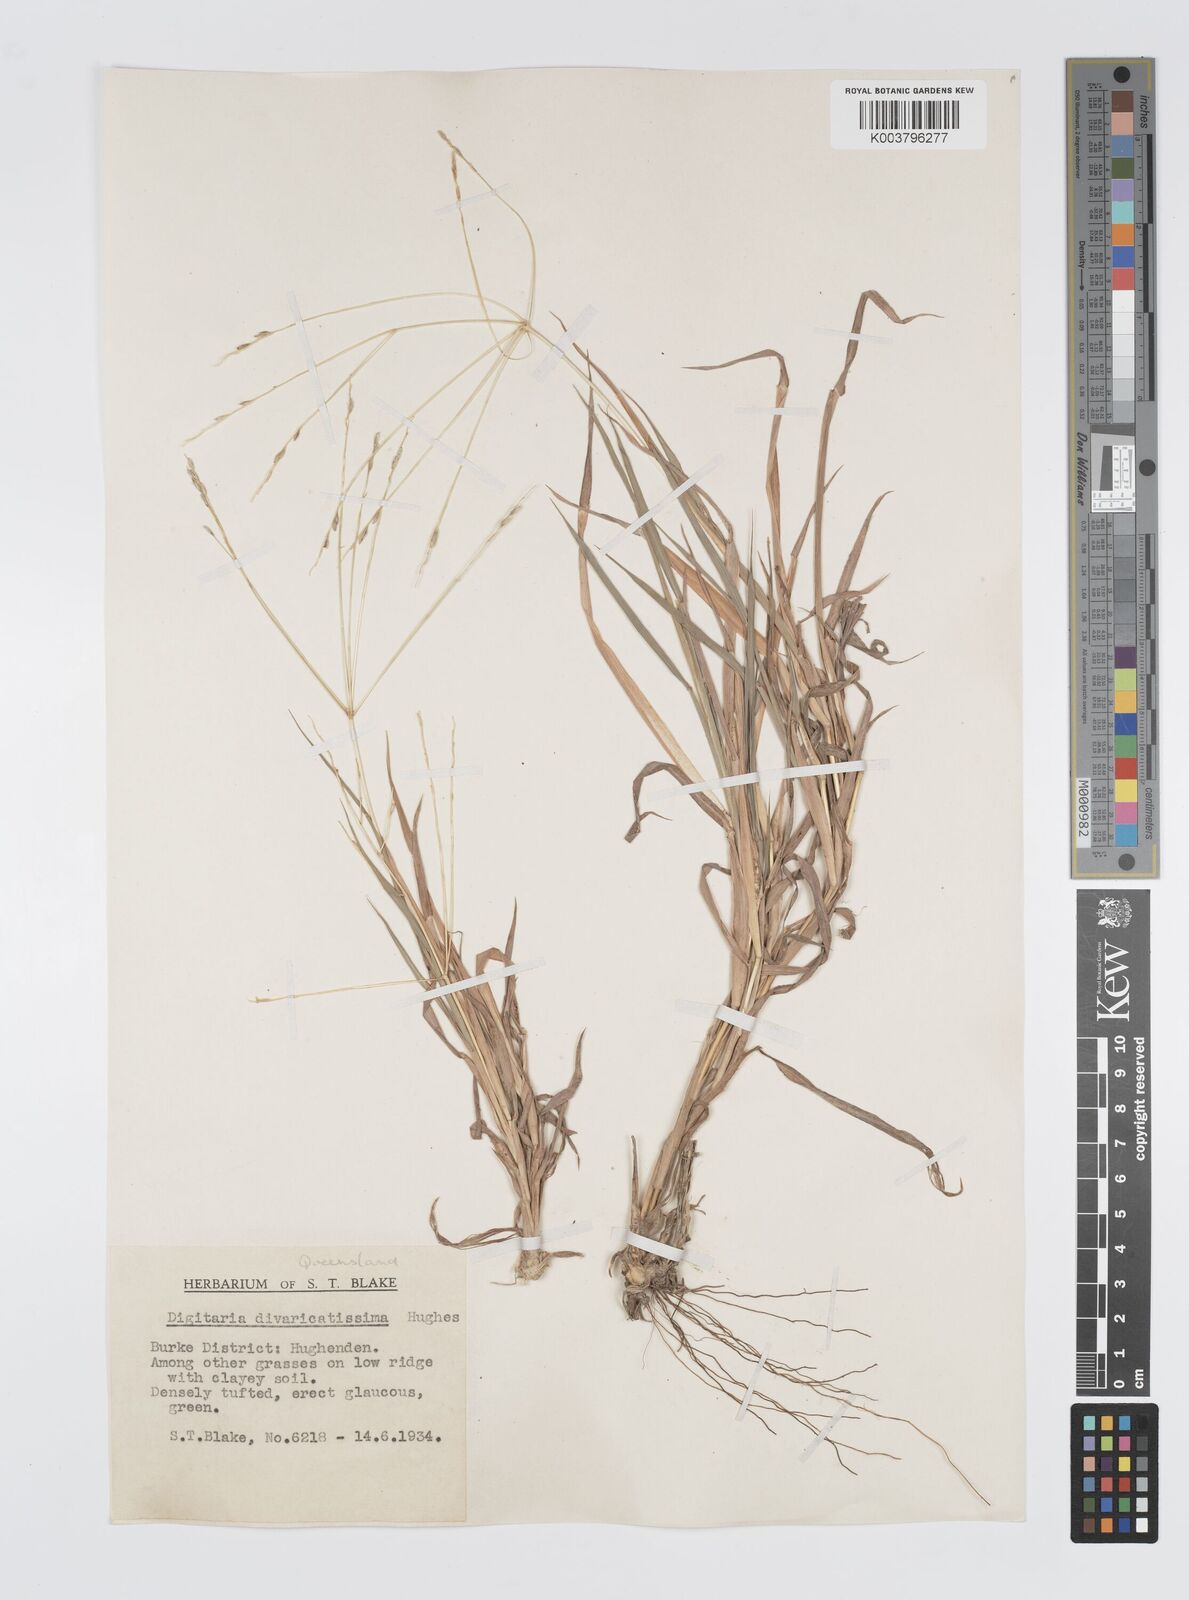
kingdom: Plantae
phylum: Tracheophyta
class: Liliopsida
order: Poales
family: Poaceae
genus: Digitaria
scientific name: Digitaria divaricatissima
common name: Crabgrass
